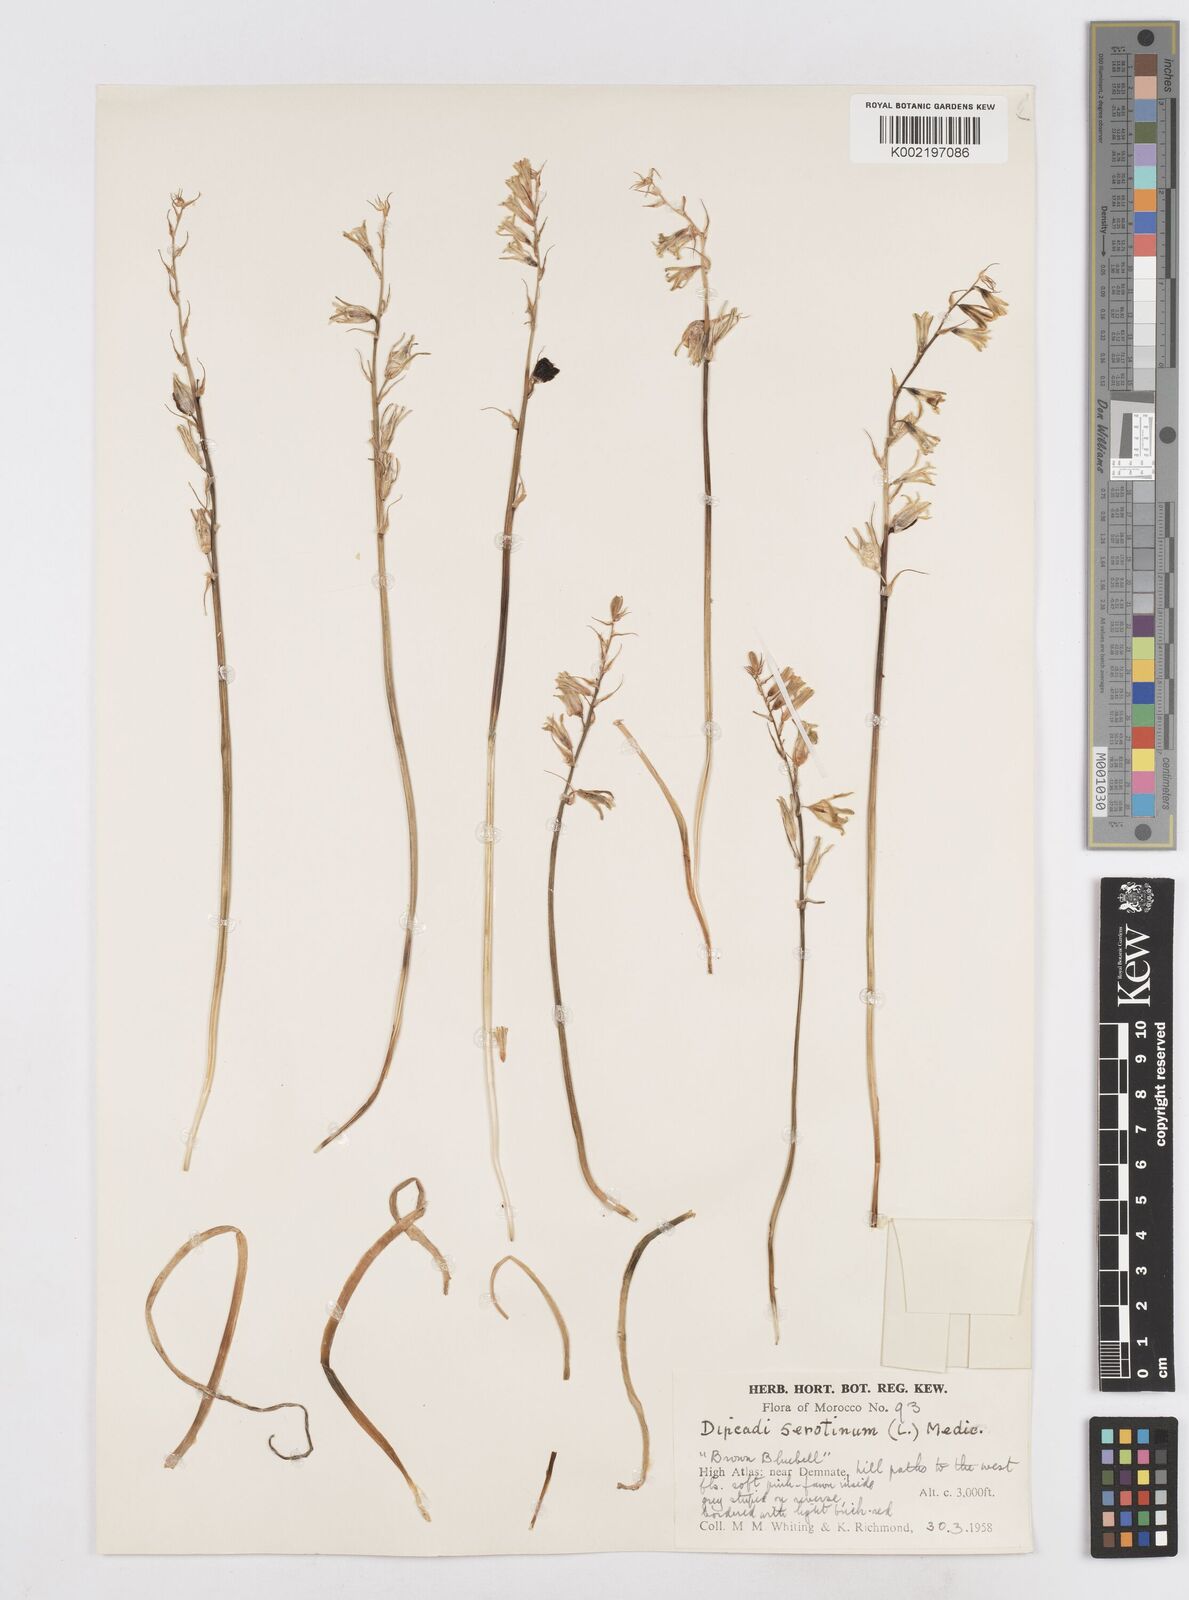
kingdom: Plantae
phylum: Tracheophyta
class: Liliopsida
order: Asparagales
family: Asparagaceae
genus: Dipcadi
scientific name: Dipcadi serotinum
